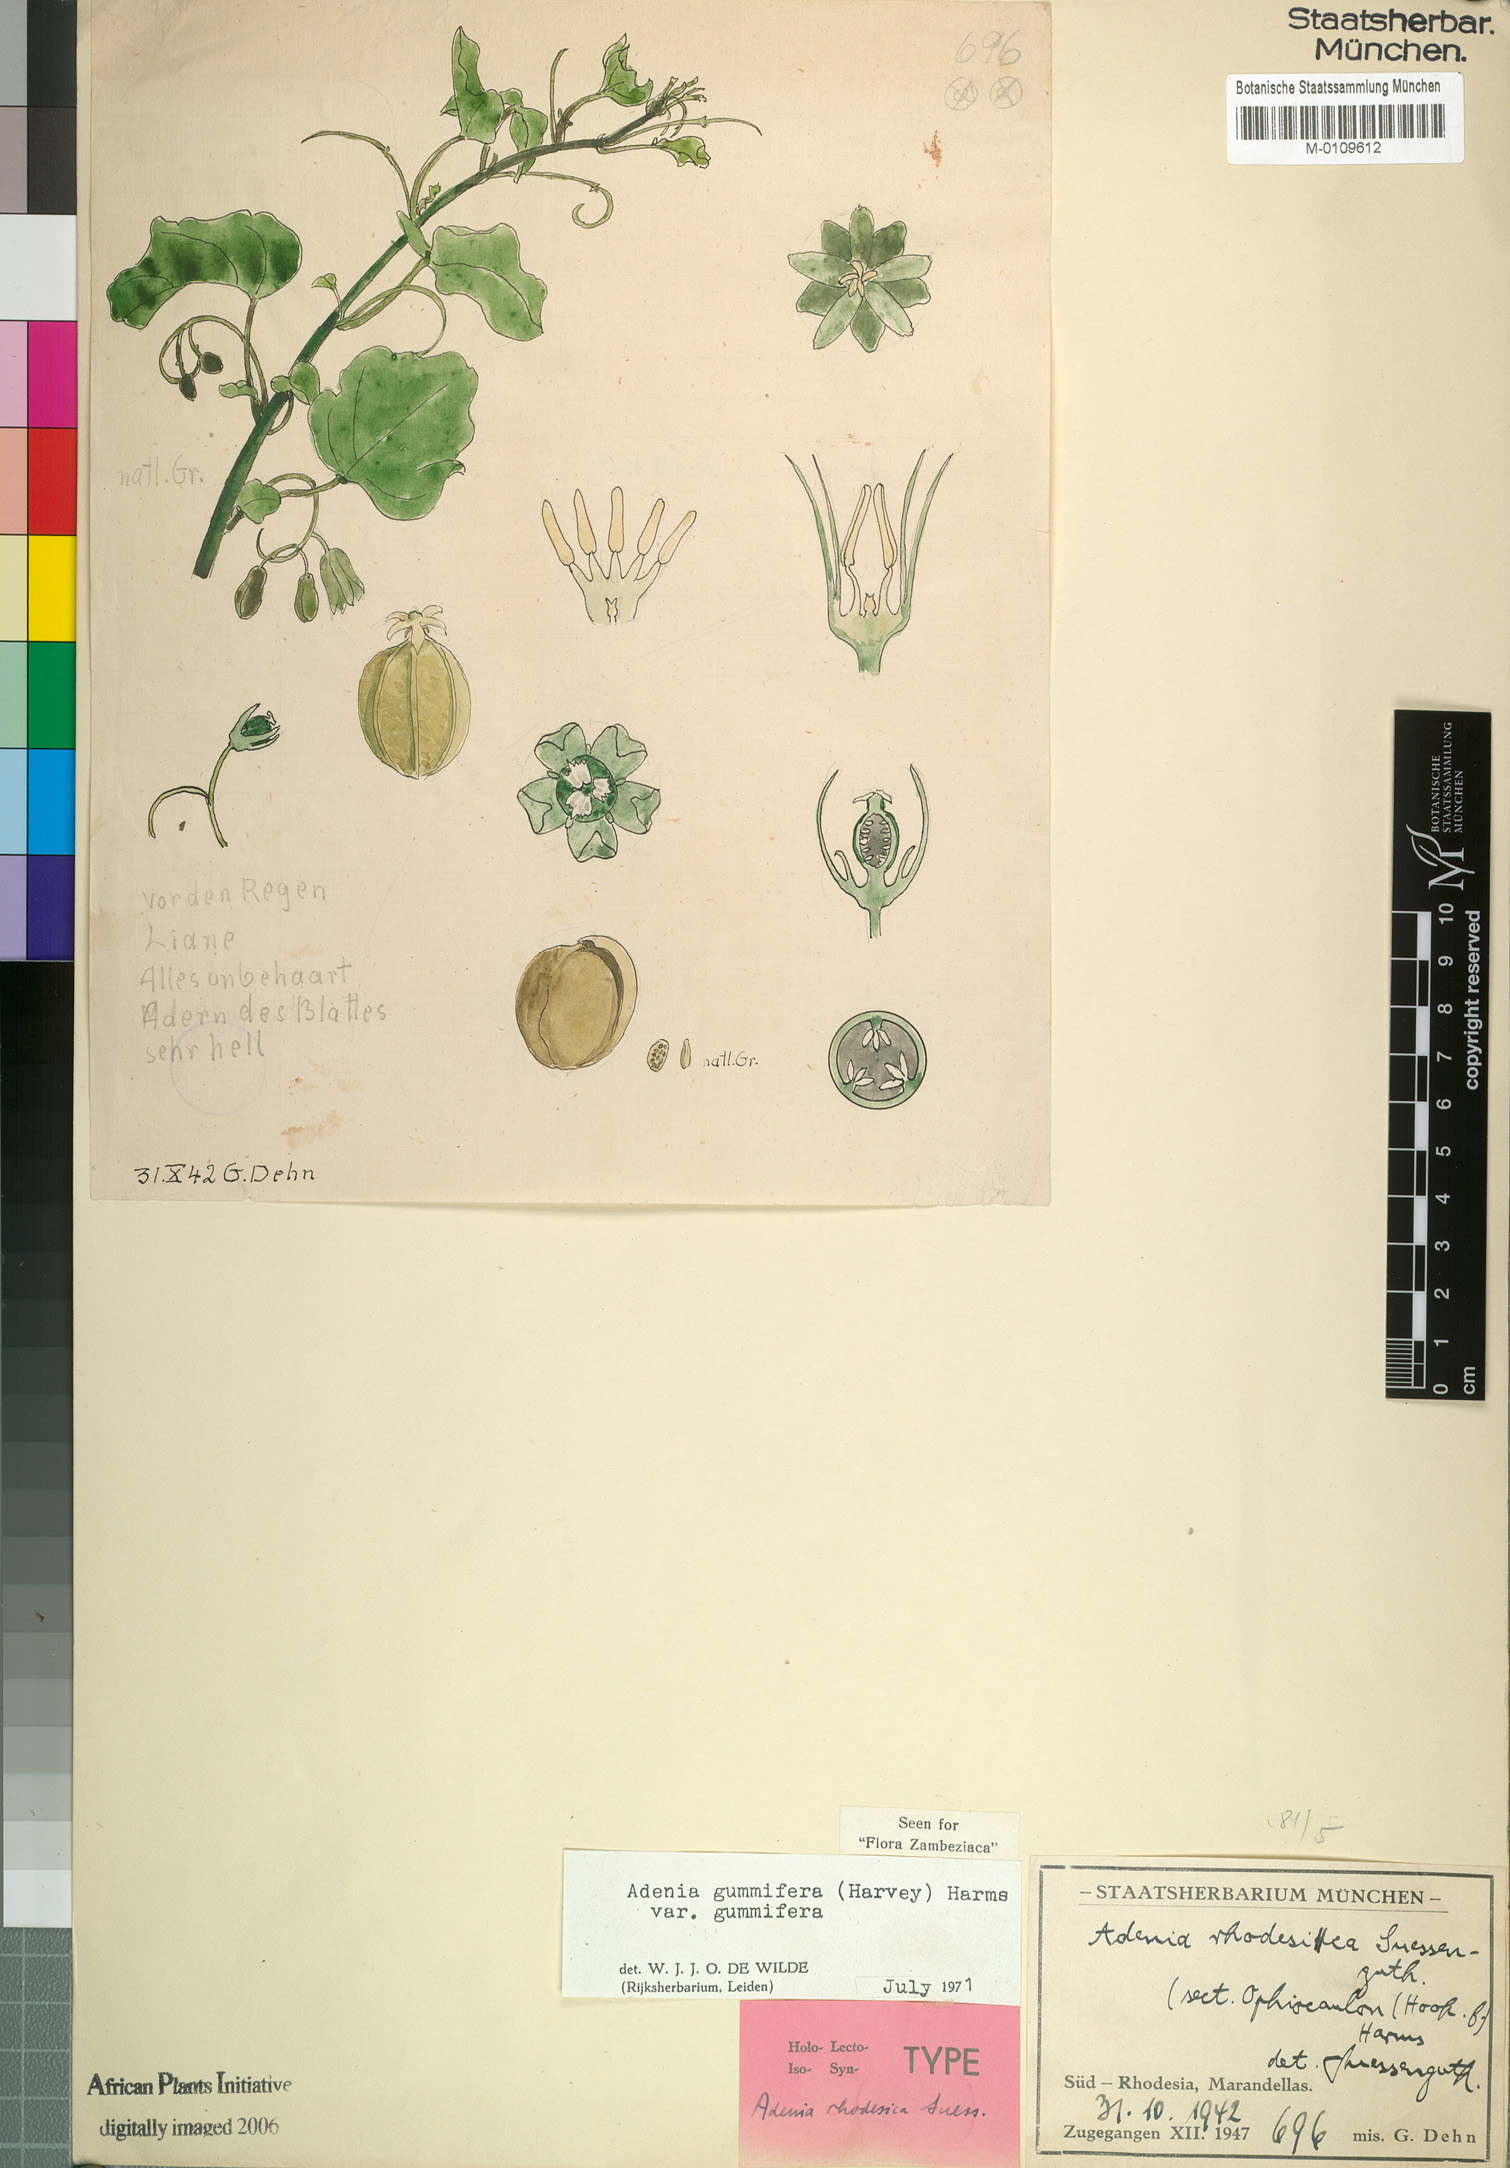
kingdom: Plantae
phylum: Tracheophyta
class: Magnoliopsida
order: Malpighiales
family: Passifloraceae
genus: Adenia
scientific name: Adenia cissampeloides
